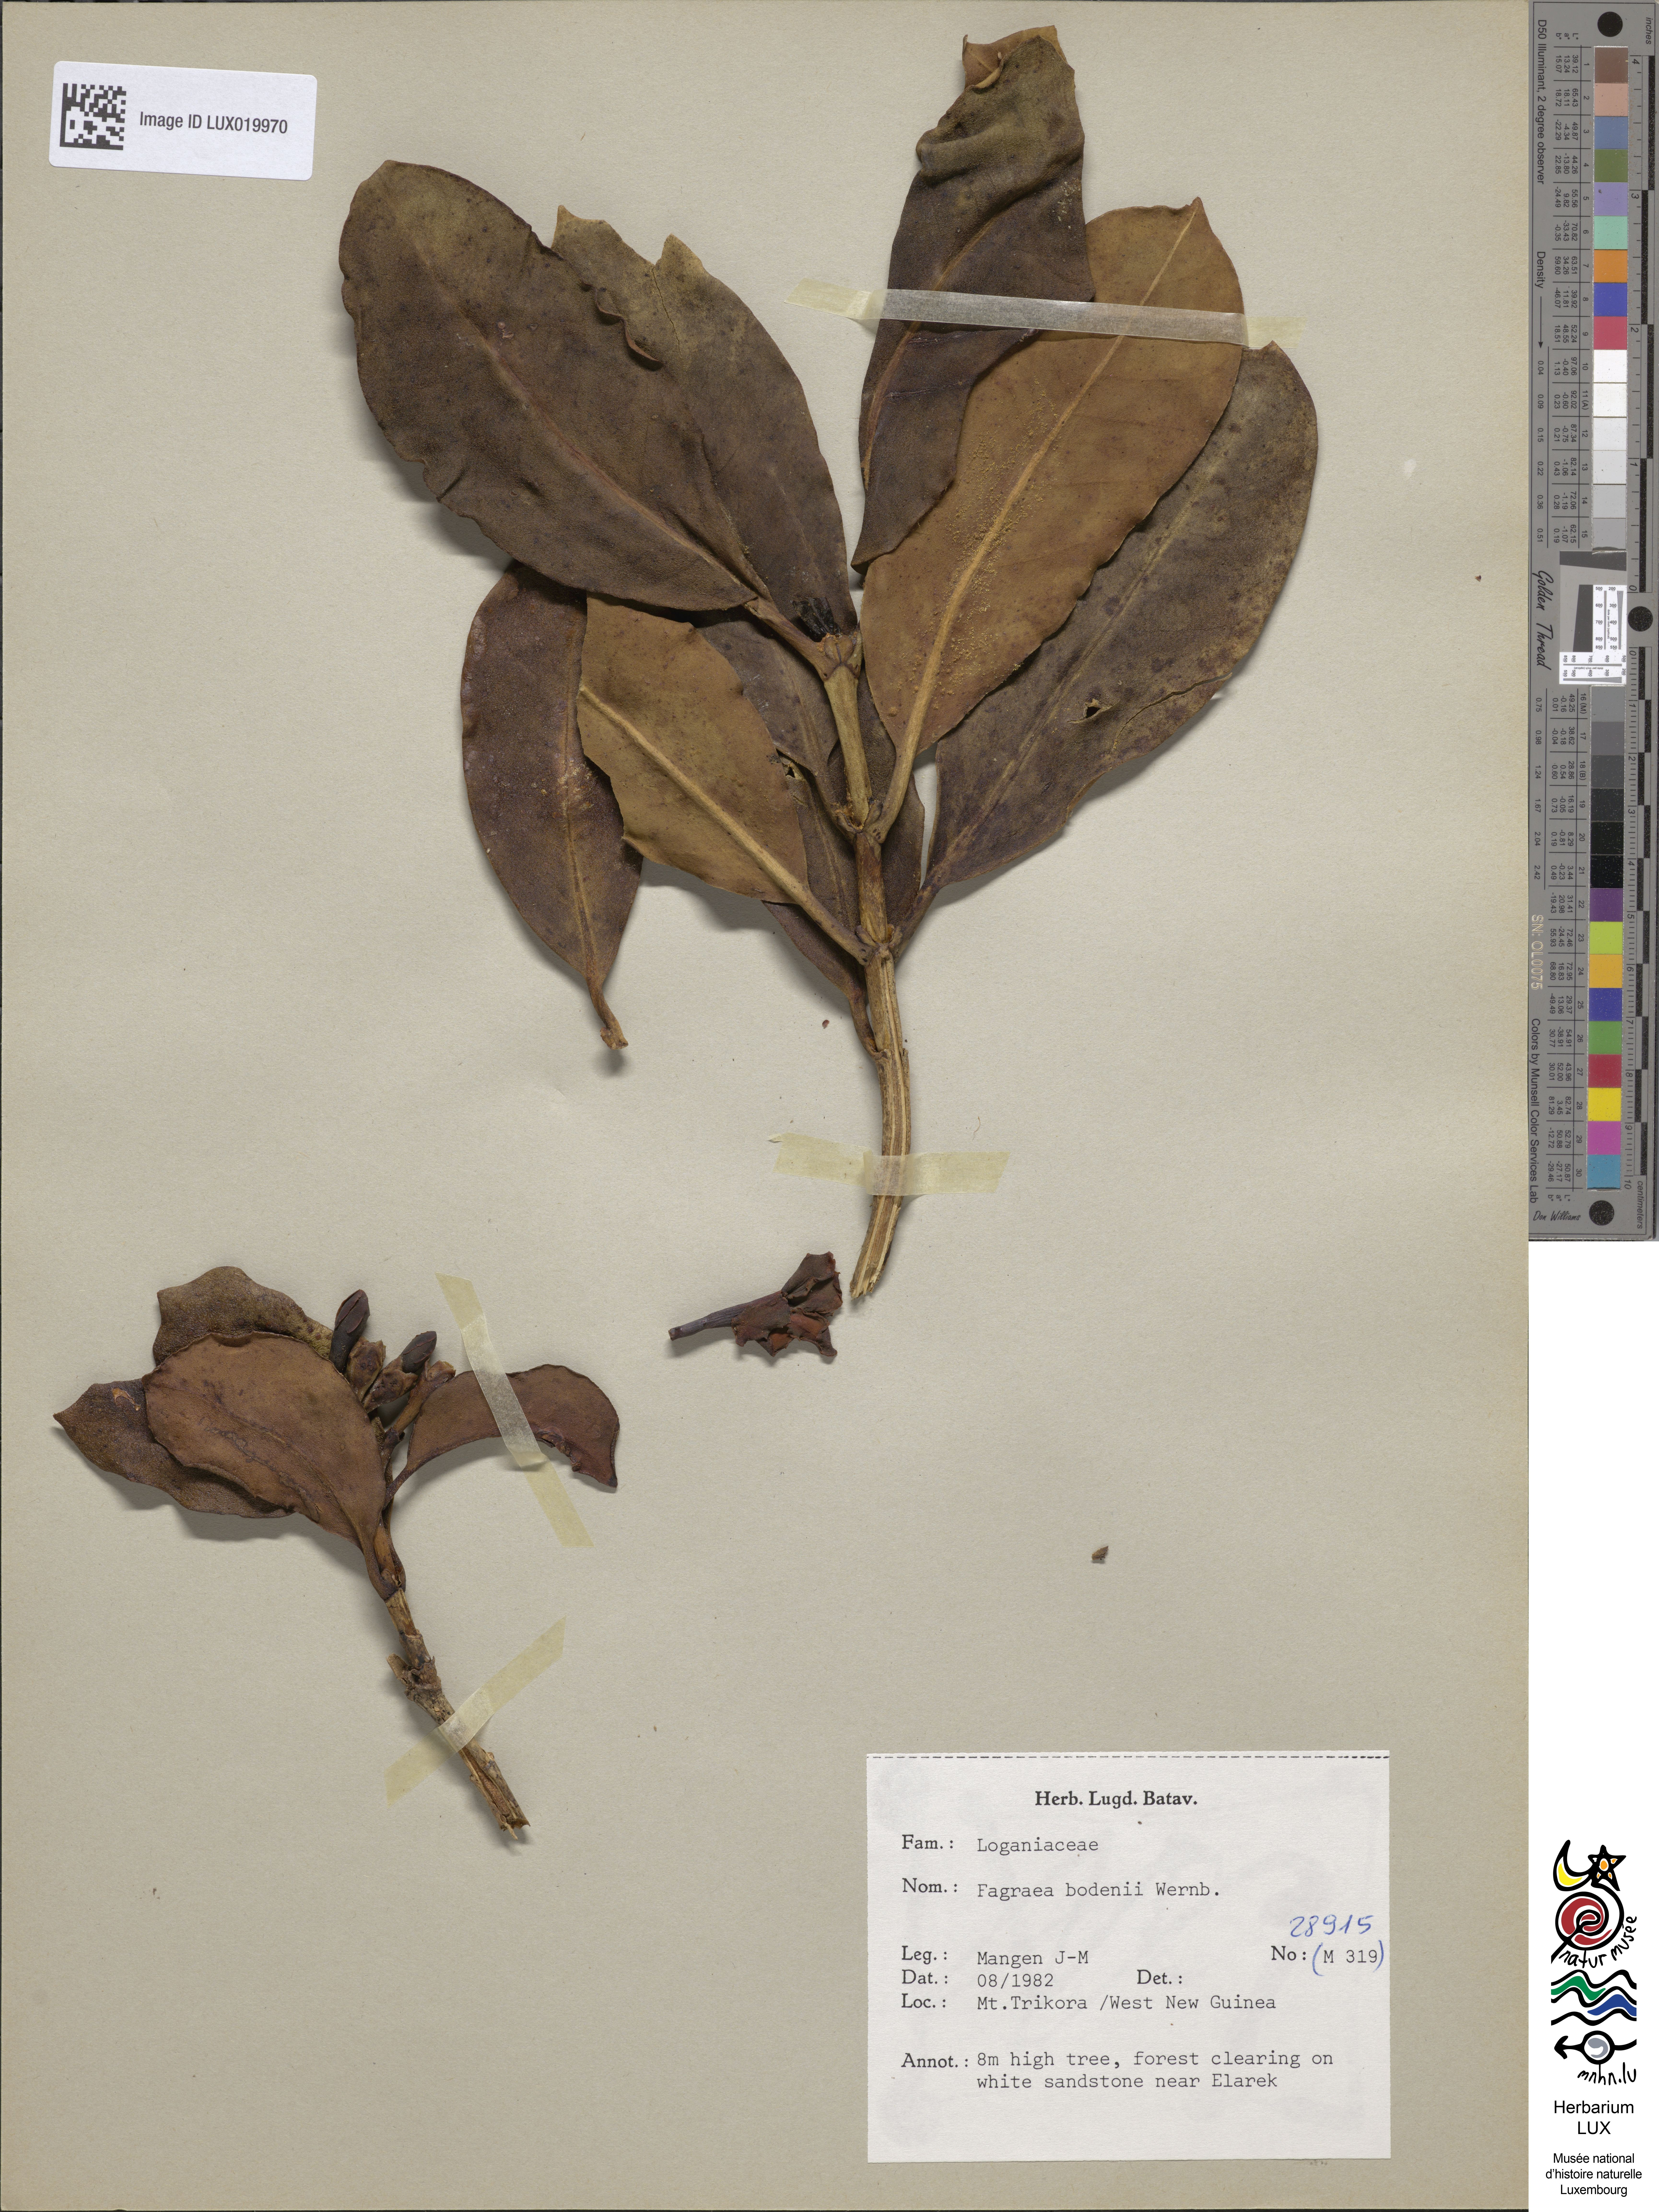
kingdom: Plantae
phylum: Tracheophyta
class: Magnoliopsida
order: Gentianales
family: Gentianaceae
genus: Fagraea
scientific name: Fagraea bodenii
